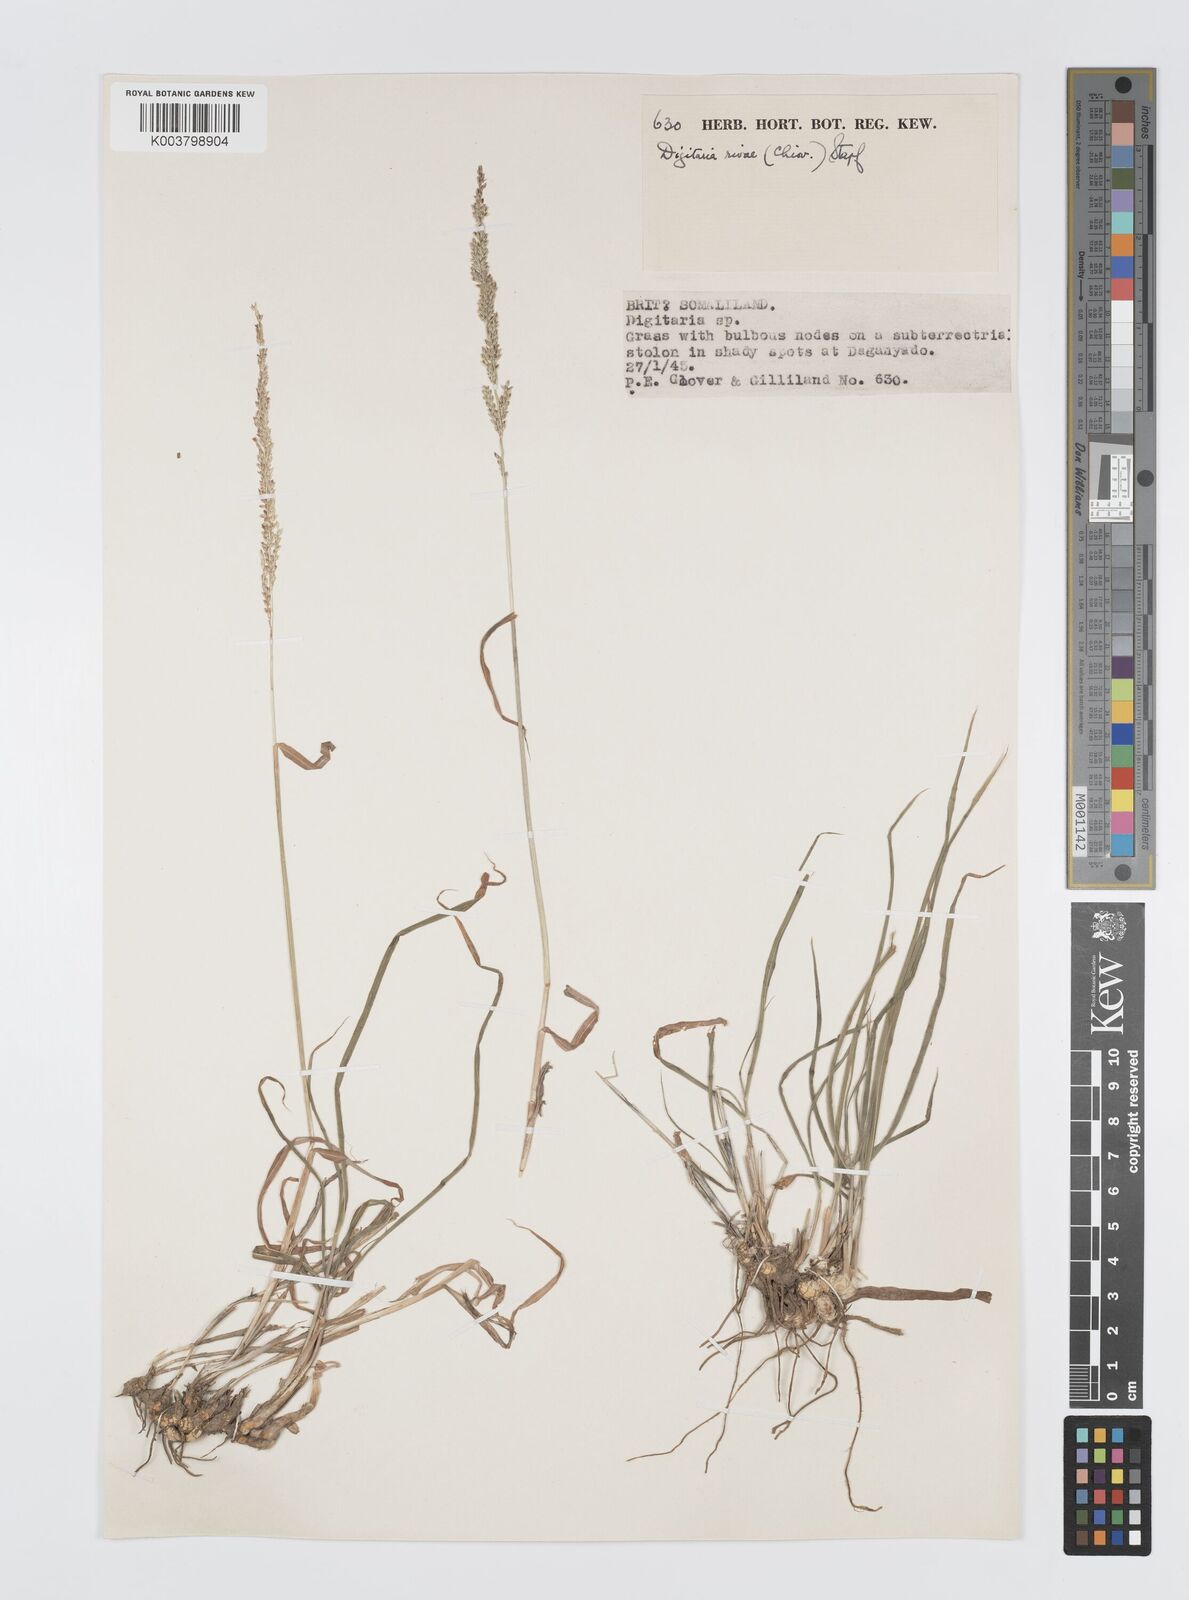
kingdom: Plantae
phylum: Tracheophyta
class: Liliopsida
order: Poales
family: Poaceae
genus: Digitaria
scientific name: Digitaria rivae
